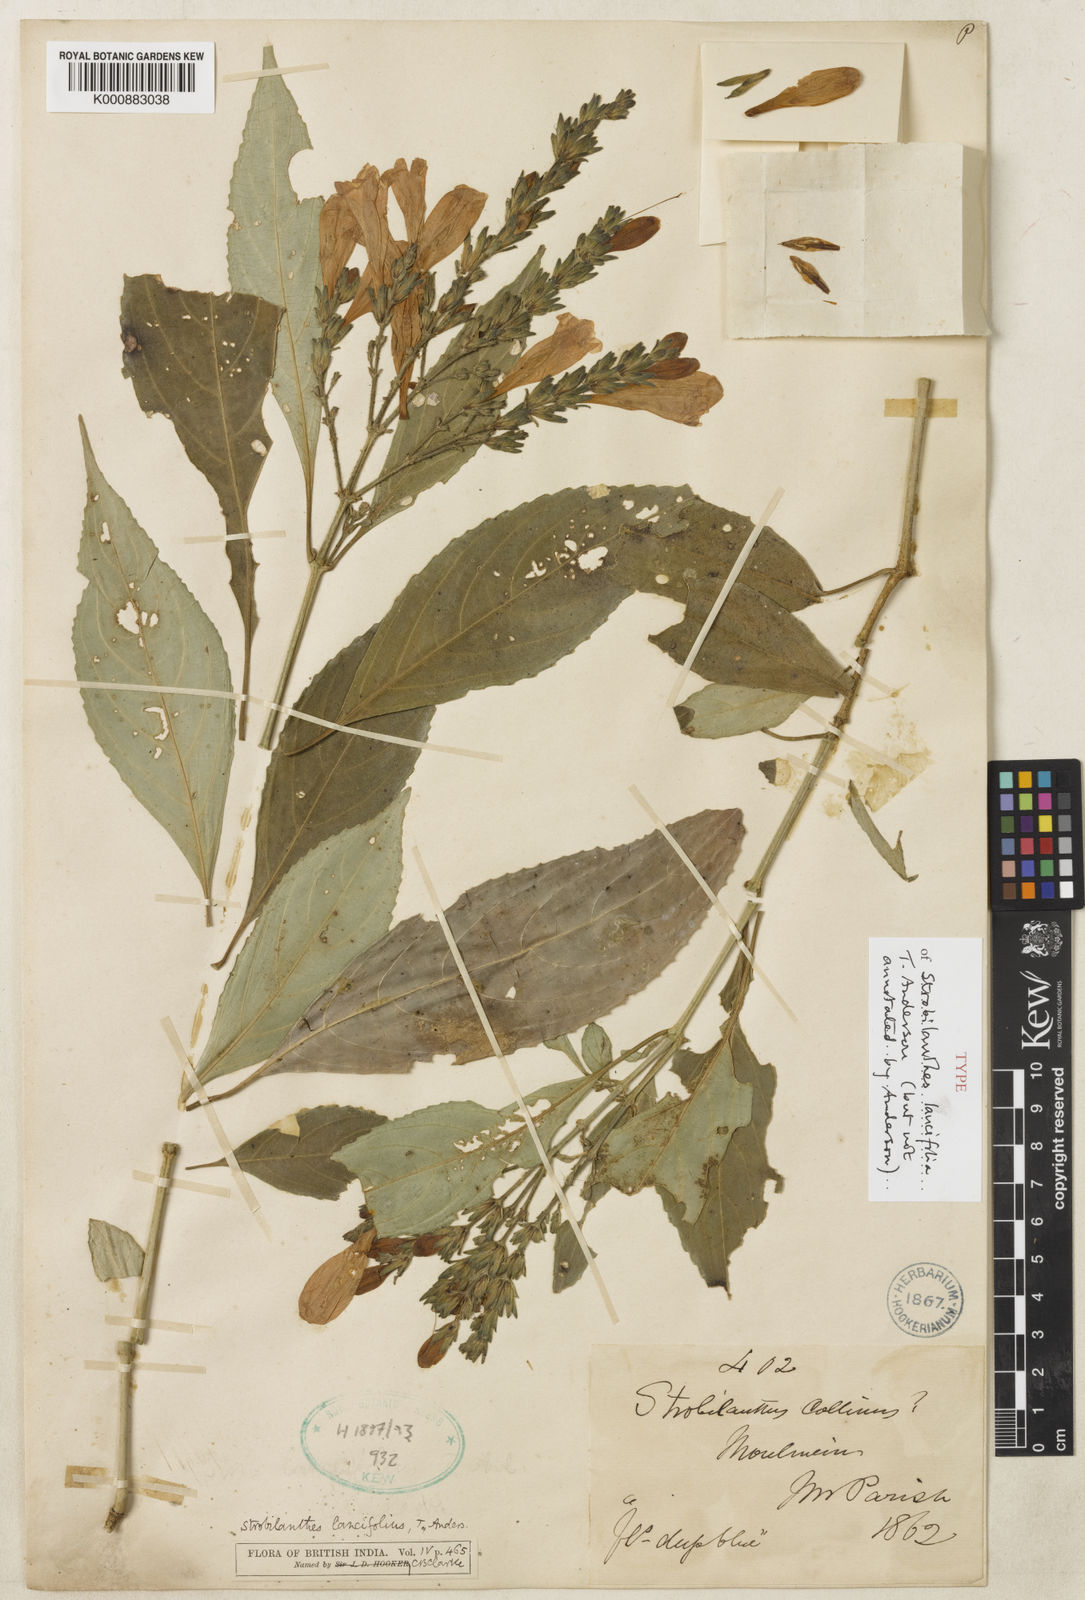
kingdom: Plantae
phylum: Tracheophyta
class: Magnoliopsida
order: Lamiales
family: Acanthaceae
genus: Strobilanthes
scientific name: Strobilanthes lanceifolia
